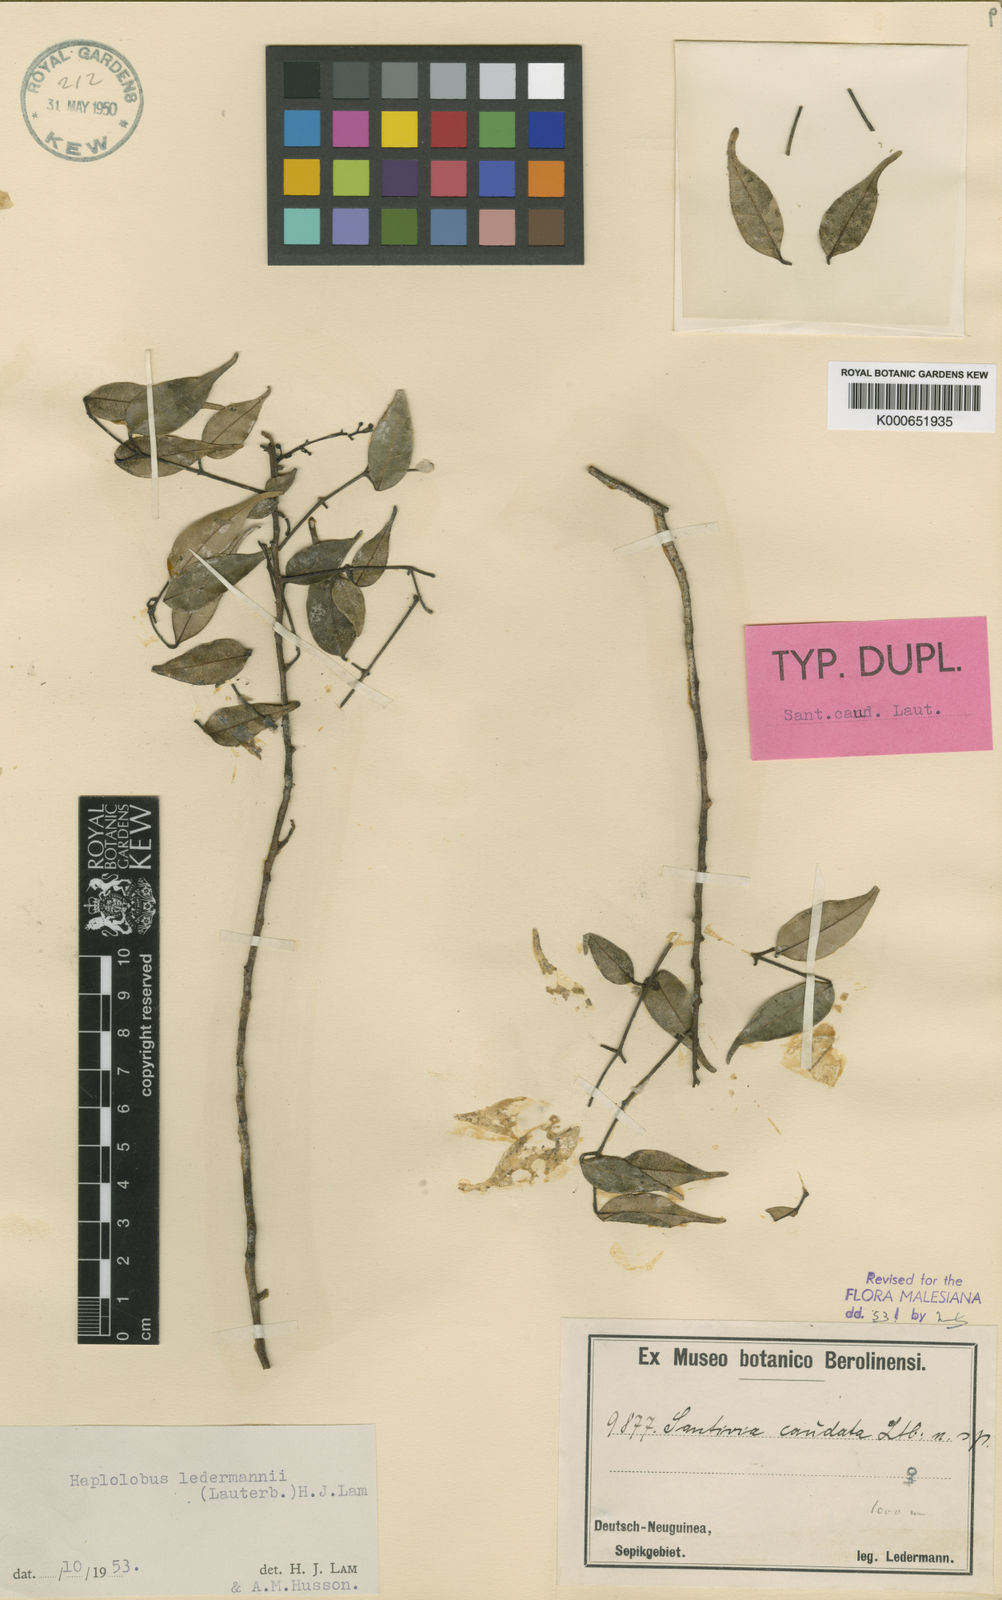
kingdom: Plantae
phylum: Tracheophyta
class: Magnoliopsida
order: Sapindales
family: Burseraceae
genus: Haplolobus
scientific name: Haplolobus floribundus
